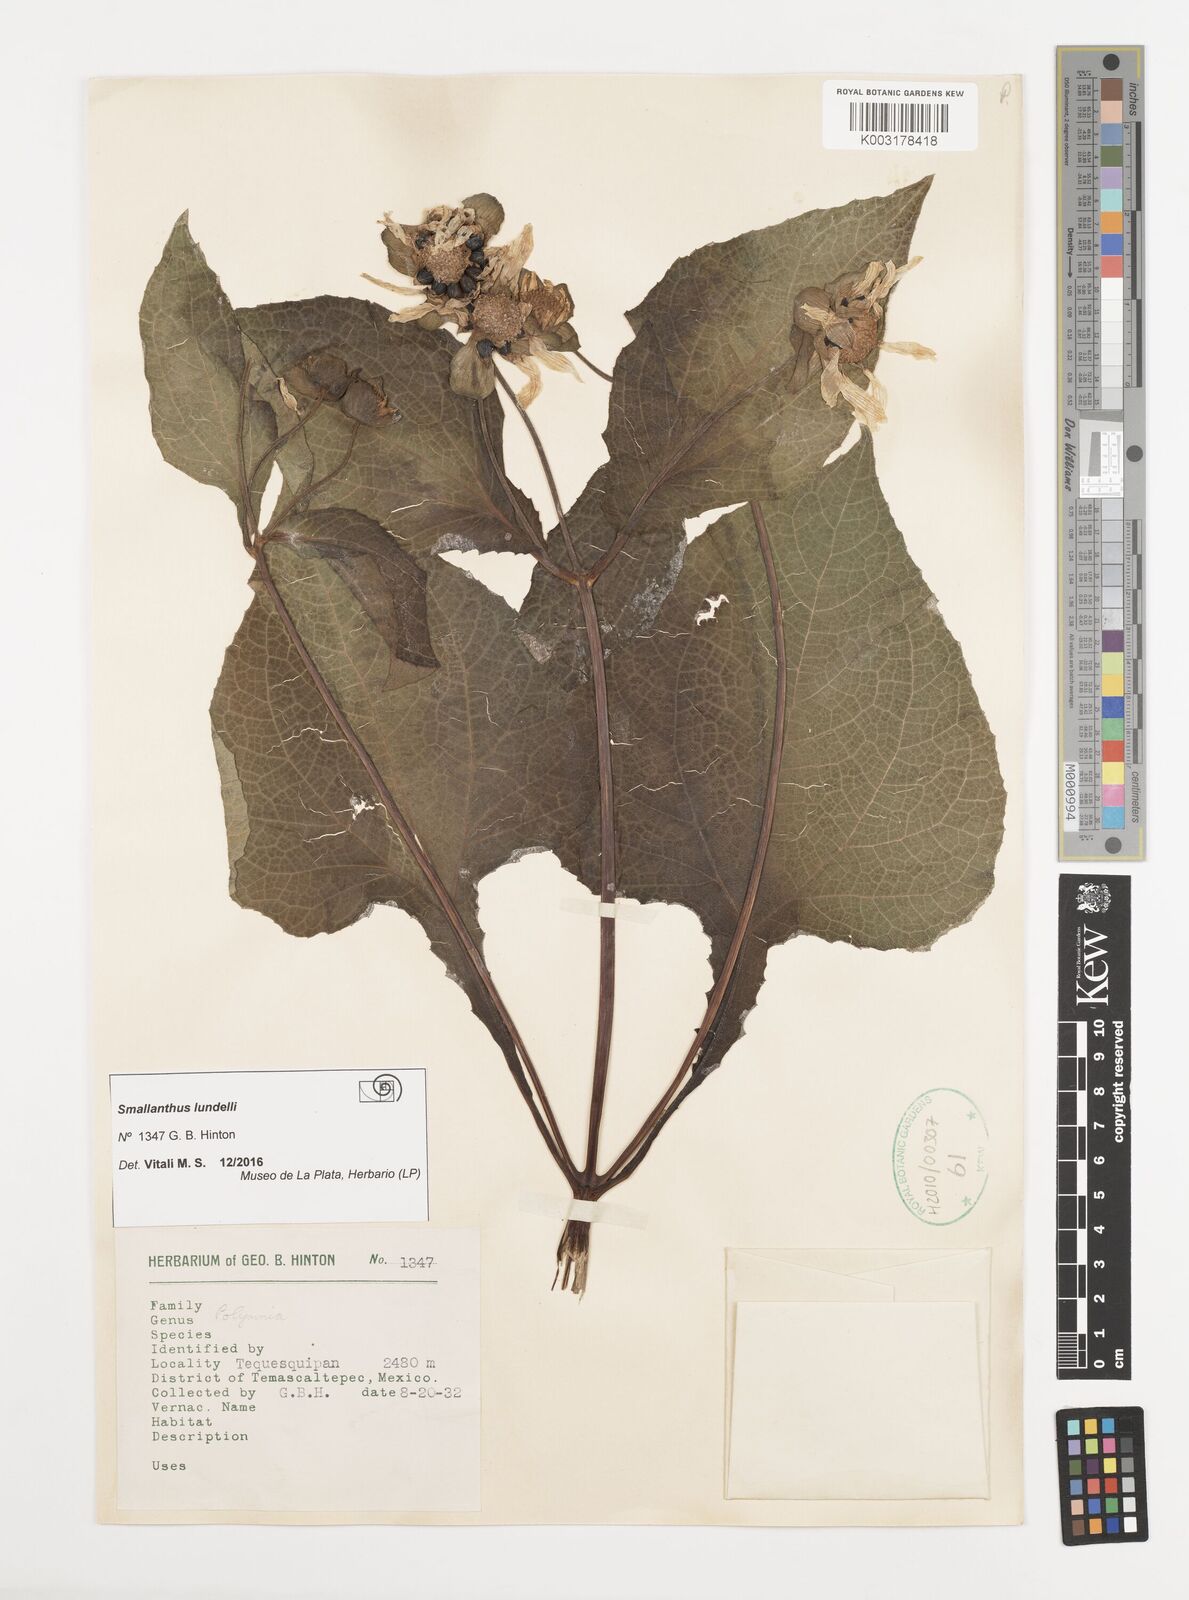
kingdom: Plantae
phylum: Tracheophyta
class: Magnoliopsida
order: Asterales
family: Asteraceae
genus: Smallanthus
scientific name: Smallanthus maculatus
